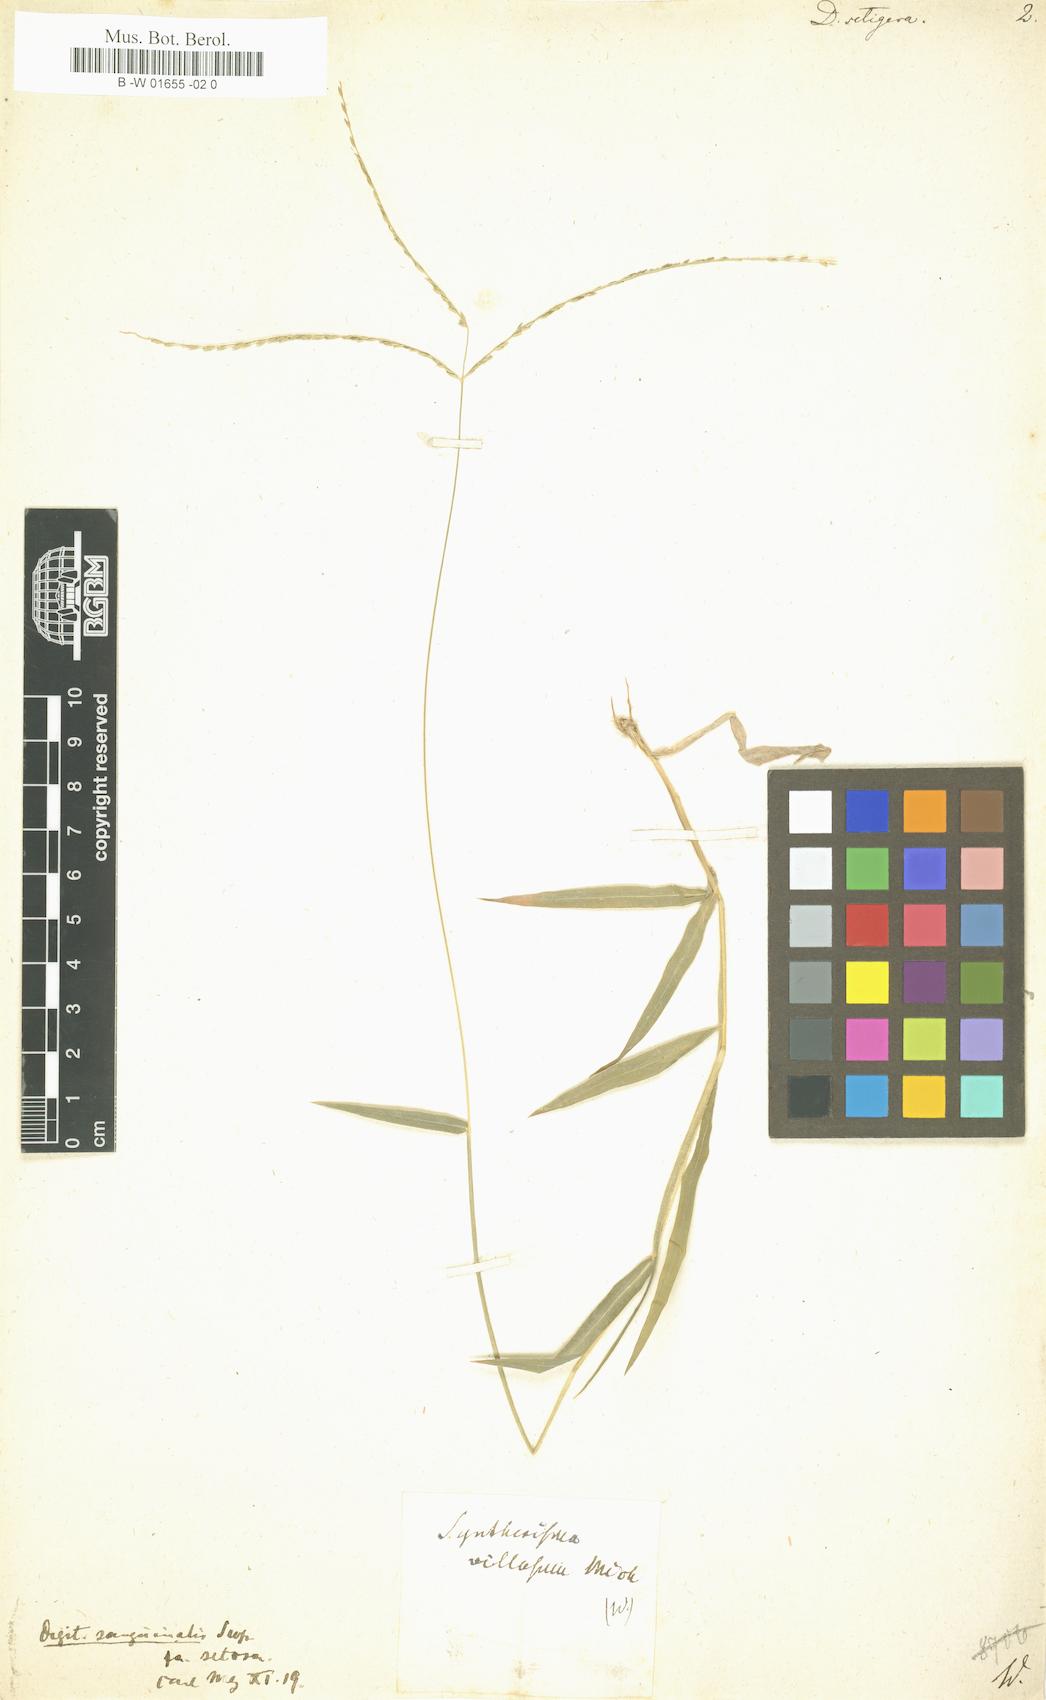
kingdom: Plantae
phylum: Tracheophyta
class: Liliopsida
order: Poales
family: Poaceae
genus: Digitaria
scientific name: Digitaria setigera
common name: East indian crabgrass
